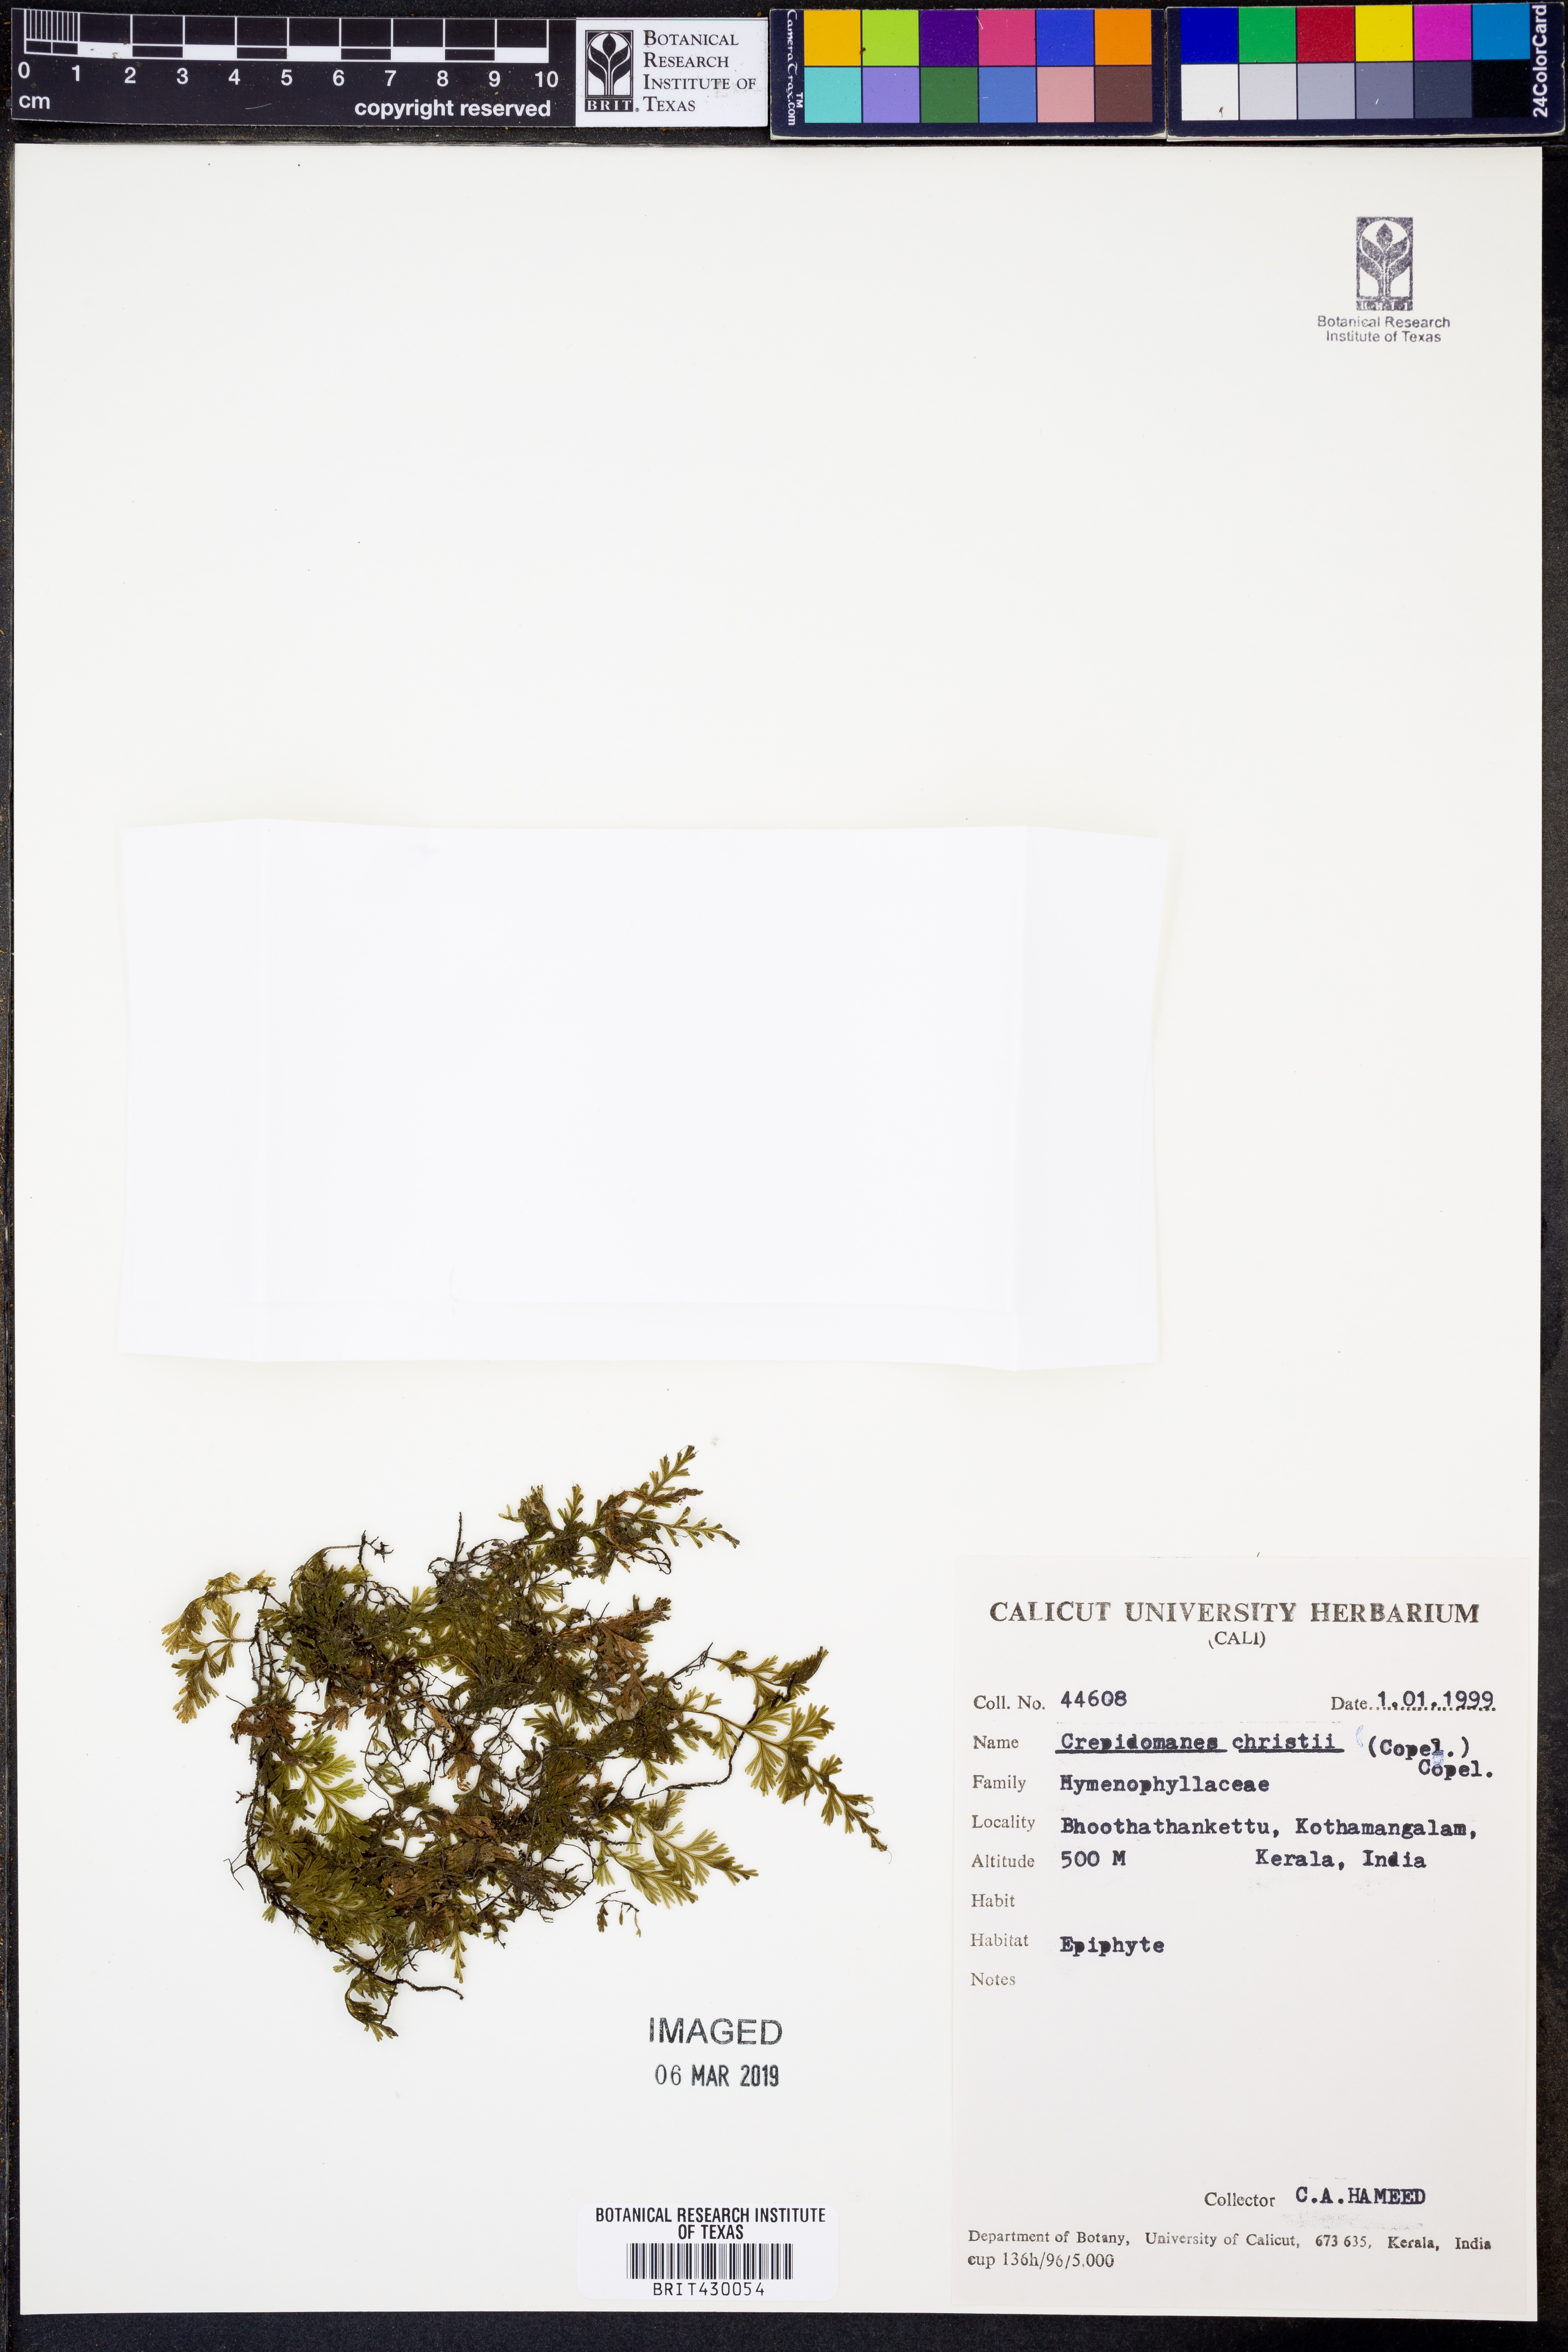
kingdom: Plantae
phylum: Tracheophyta
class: Polypodiopsida
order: Hymenophyllales
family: Hymenophyllaceae
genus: Crepidomanes
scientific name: Crepidomanes christii
